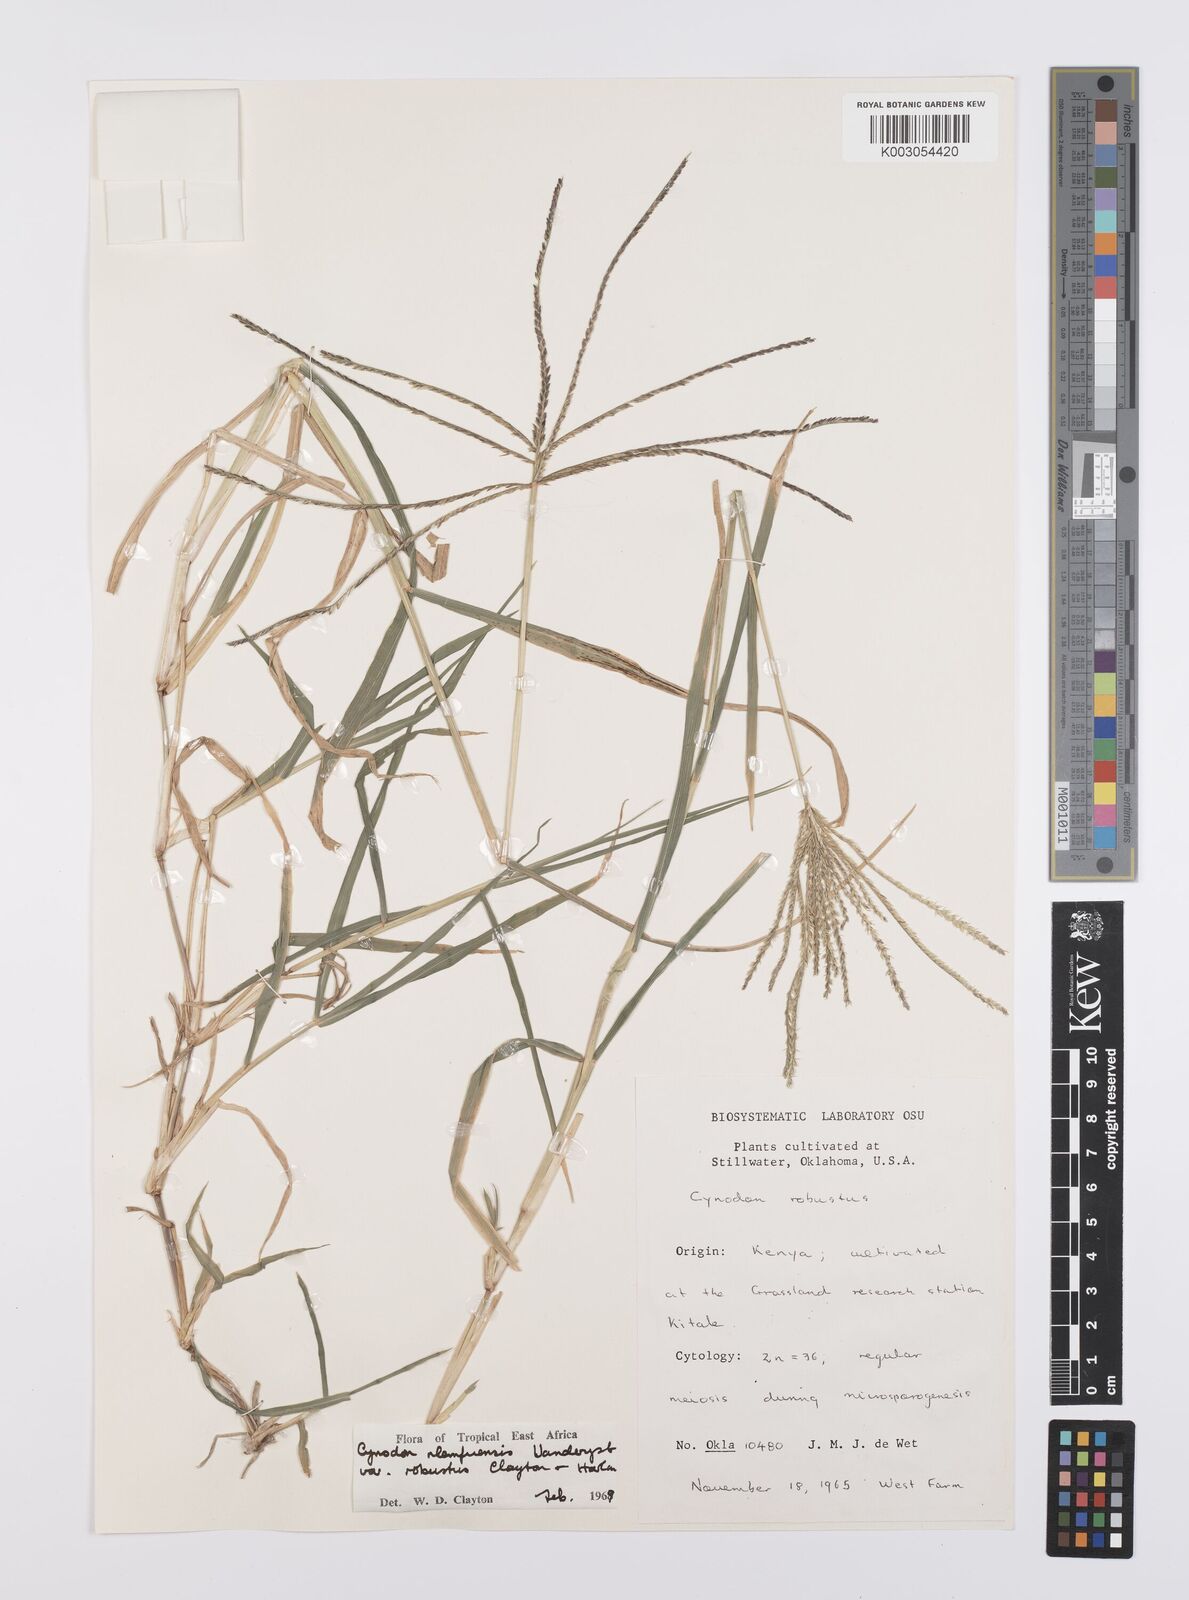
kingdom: Plantae
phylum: Tracheophyta
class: Liliopsida
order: Poales
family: Poaceae
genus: Cynodon
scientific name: Cynodon nlemfuensis
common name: African bermudagrass
